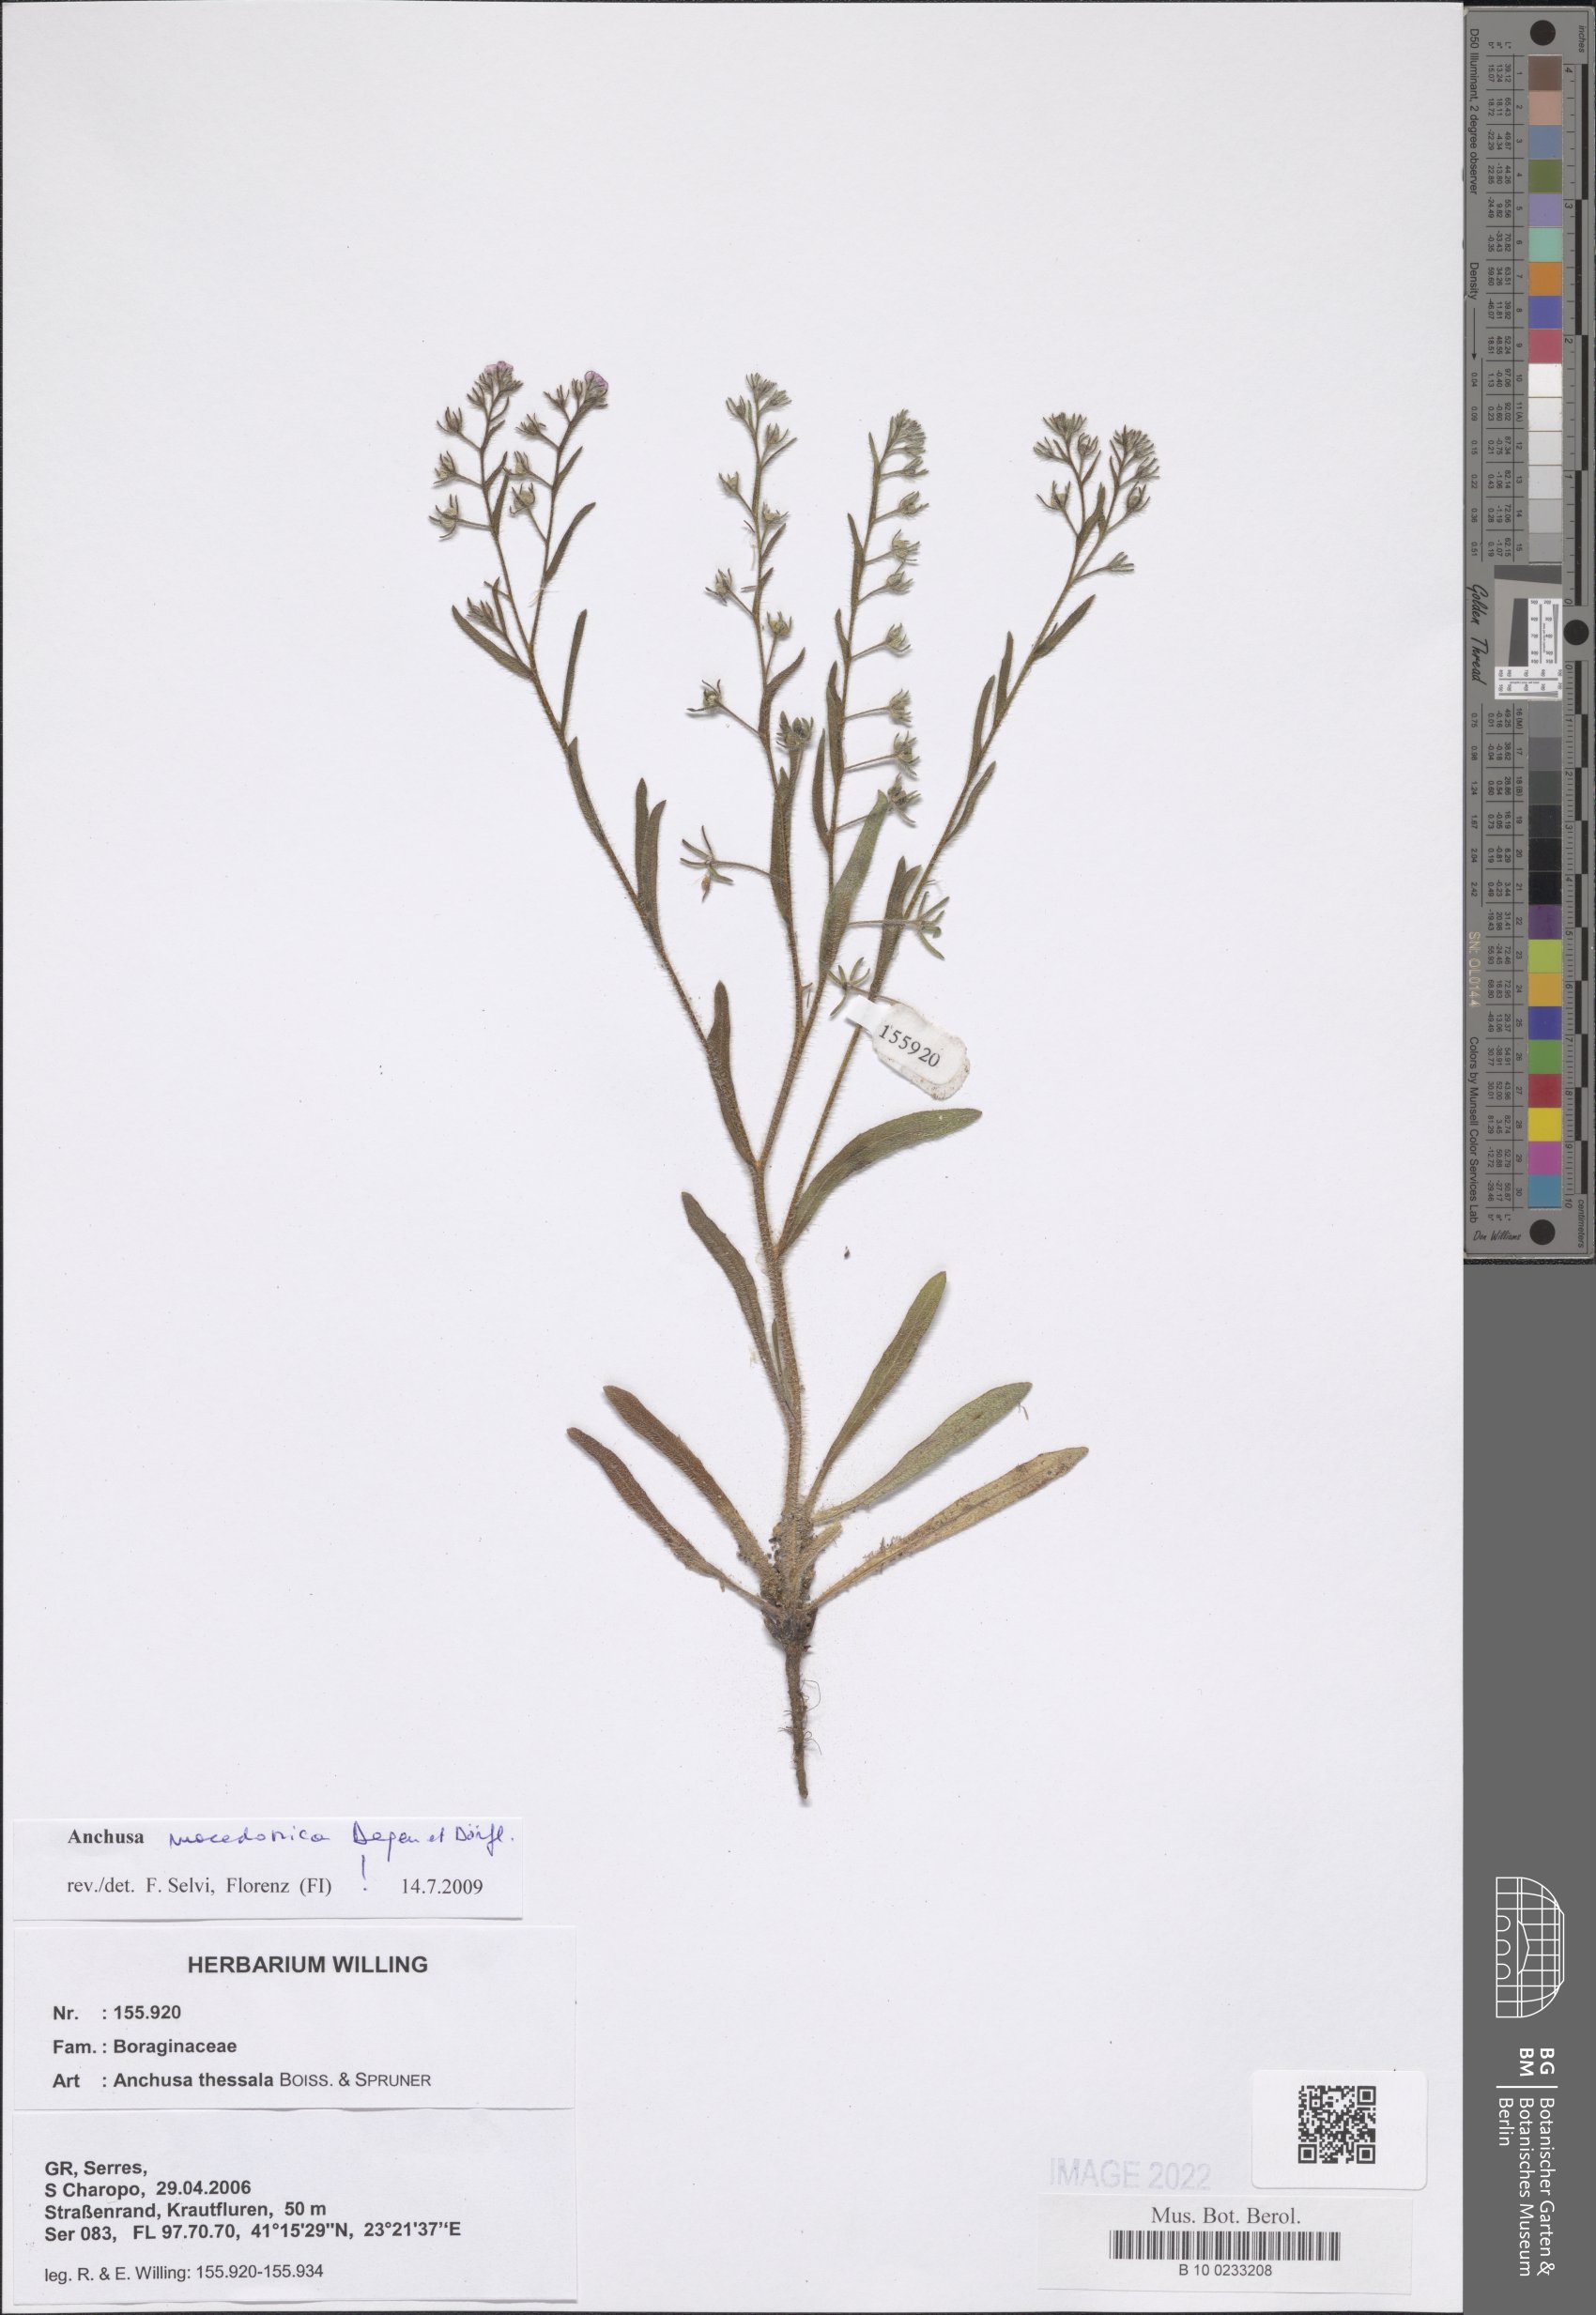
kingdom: Plantae
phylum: Tracheophyta
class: Magnoliopsida
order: Boraginales
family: Boraginaceae
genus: Anchusa
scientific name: Anchusa thessala
